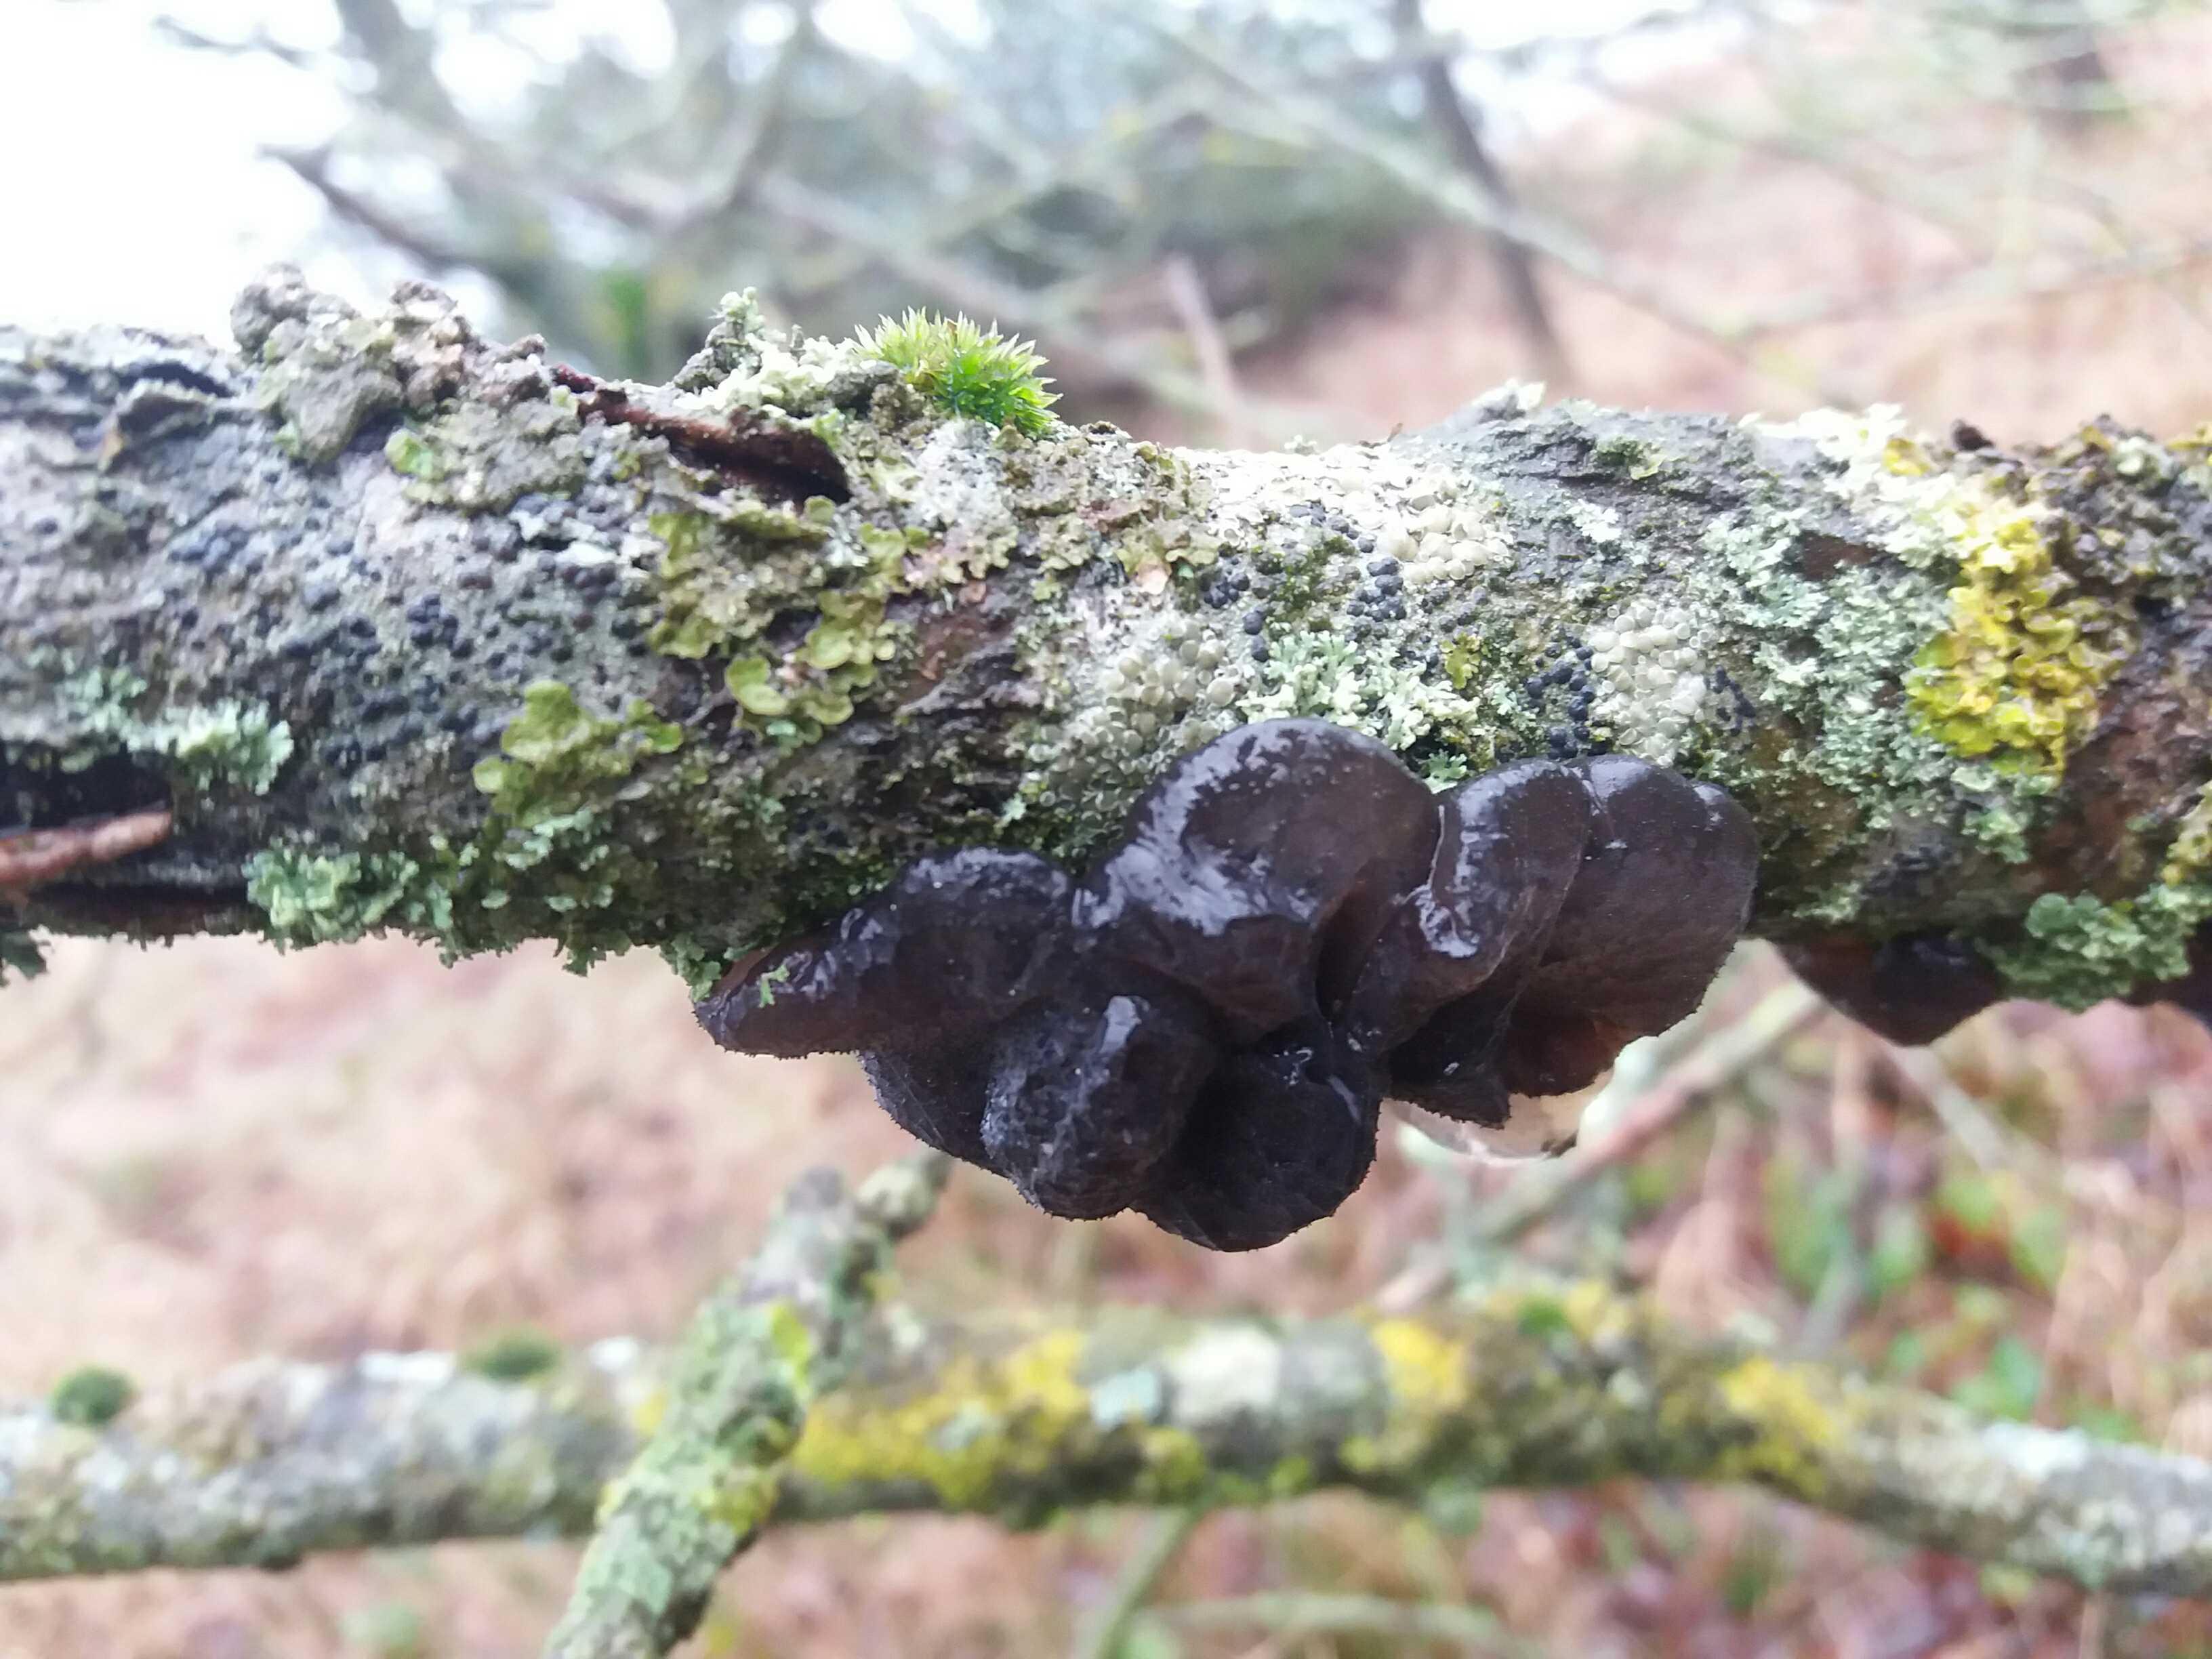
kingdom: Fungi
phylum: Basidiomycota
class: Agaricomycetes
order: Auriculariales
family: Auriculariaceae
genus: Exidia
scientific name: Exidia glandulosa
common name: ege-bævretop
